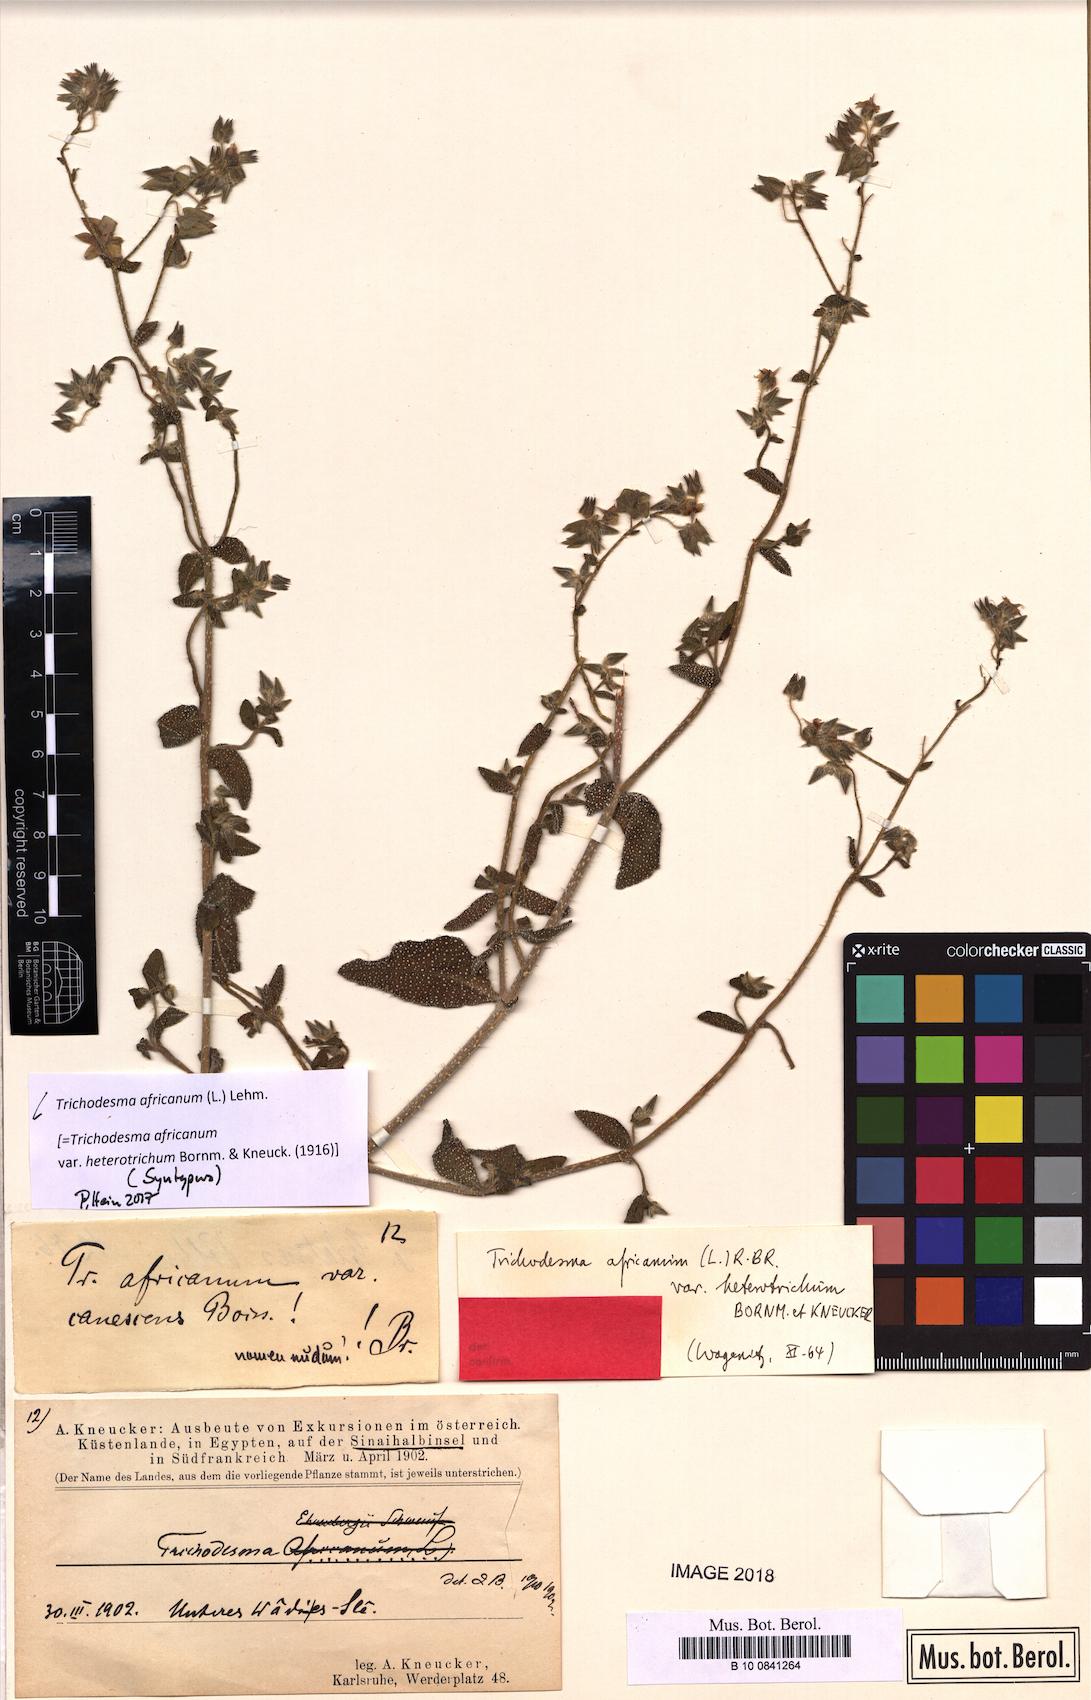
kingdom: Plantae
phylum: Tracheophyta
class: Magnoliopsida
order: Boraginales
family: Boraginaceae
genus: Trichodesma
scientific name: Trichodesma africanum
